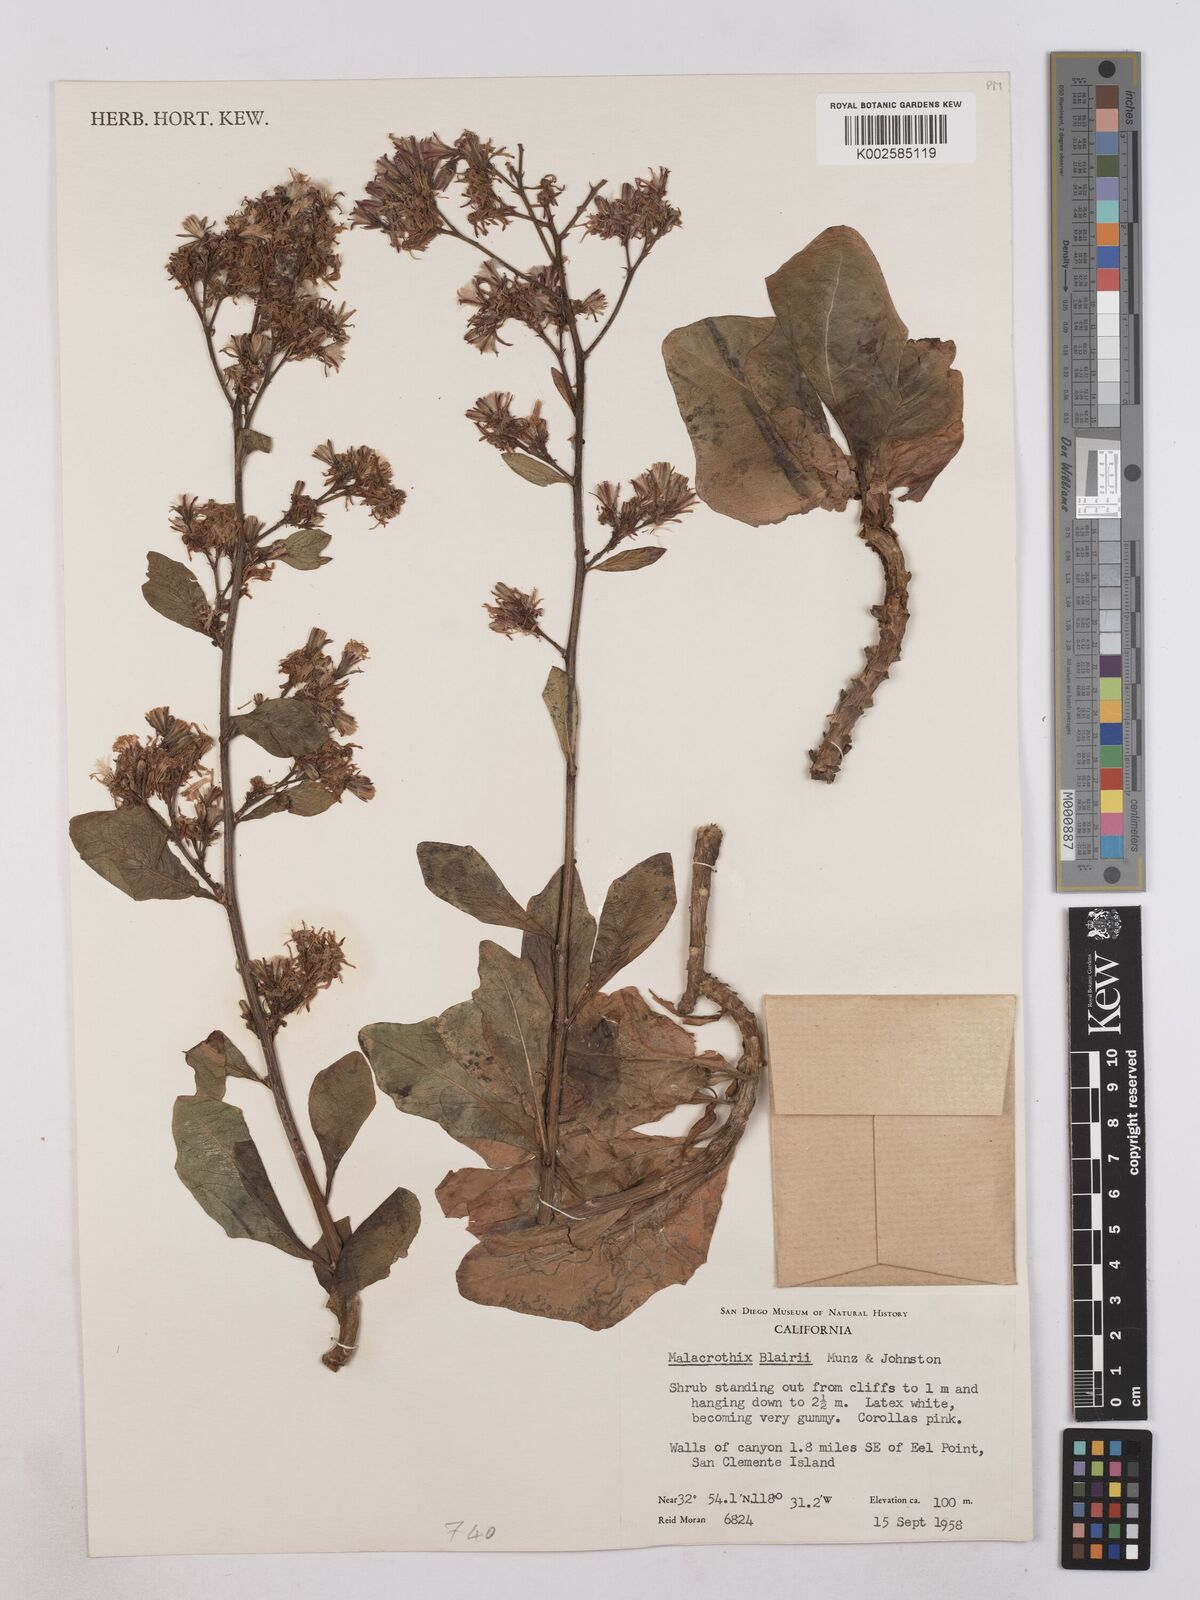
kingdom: Plantae
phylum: Tracheophyta
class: Magnoliopsida
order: Asterales
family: Asteraceae
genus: Munzothamnus
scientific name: Munzothamnus blairii
